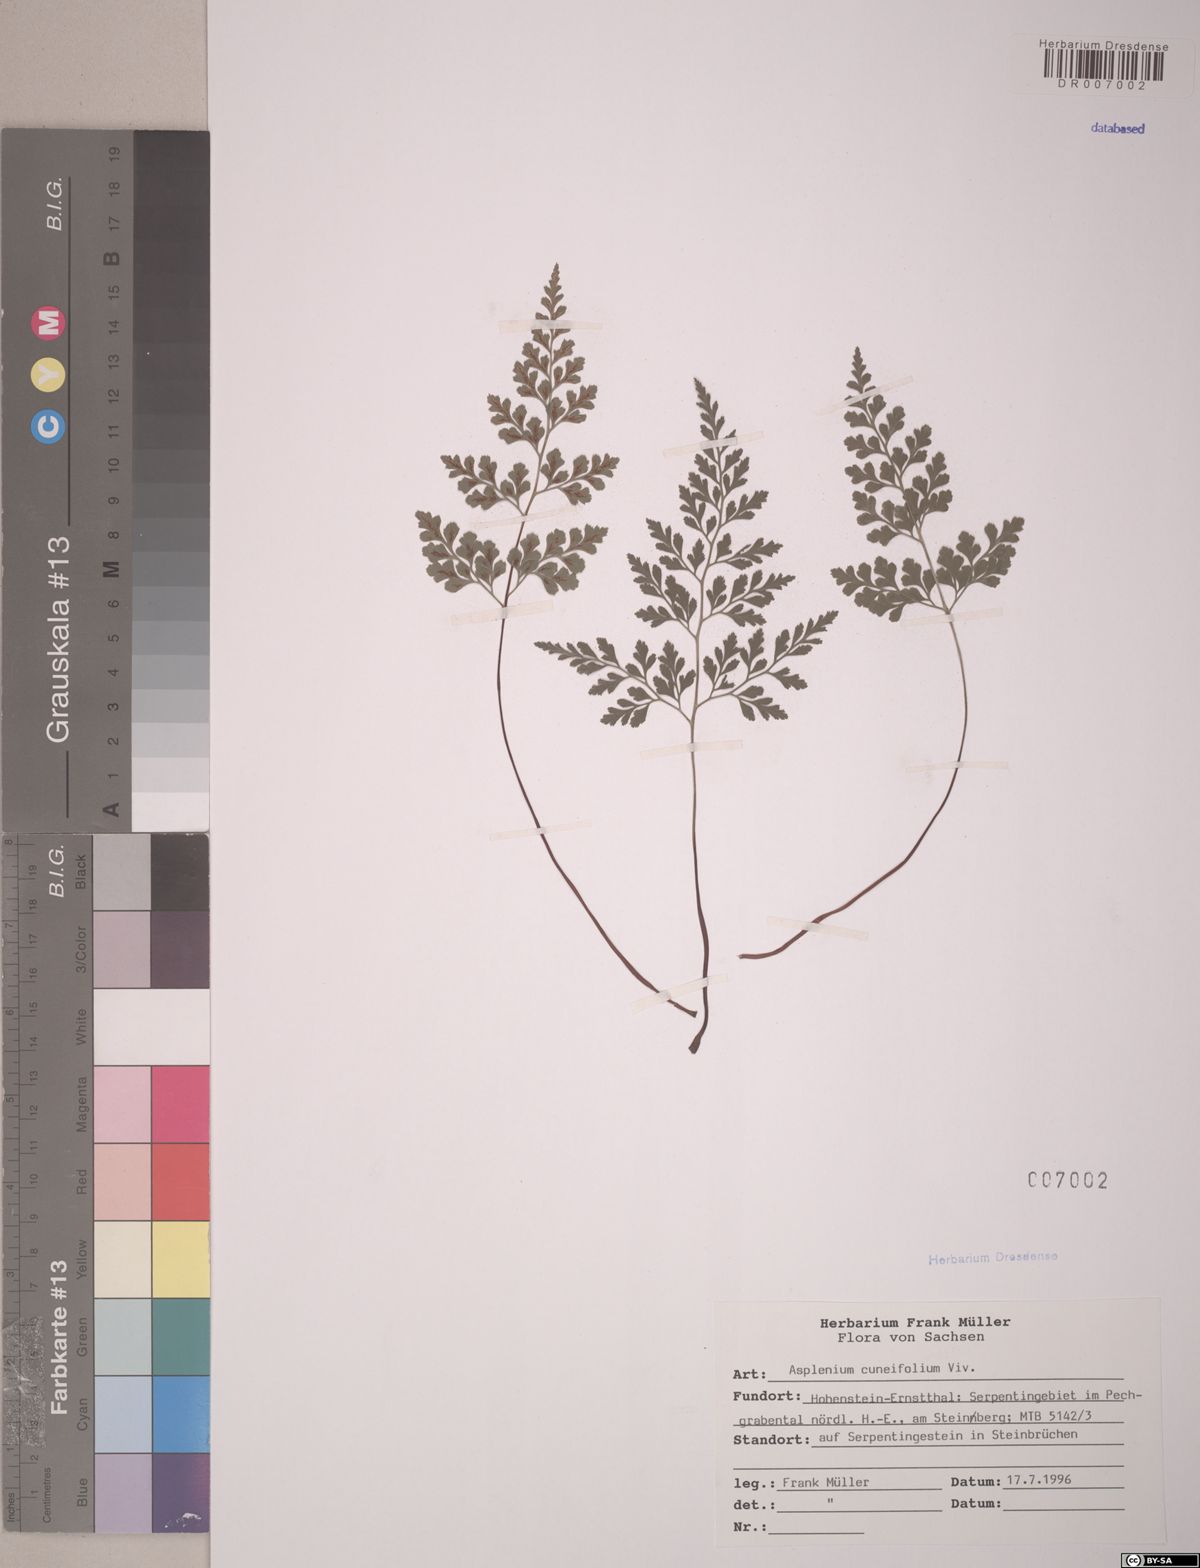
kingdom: Plantae
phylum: Tracheophyta
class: Polypodiopsida
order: Polypodiales
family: Aspleniaceae
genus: Asplenium
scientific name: Asplenium cuneifolium
